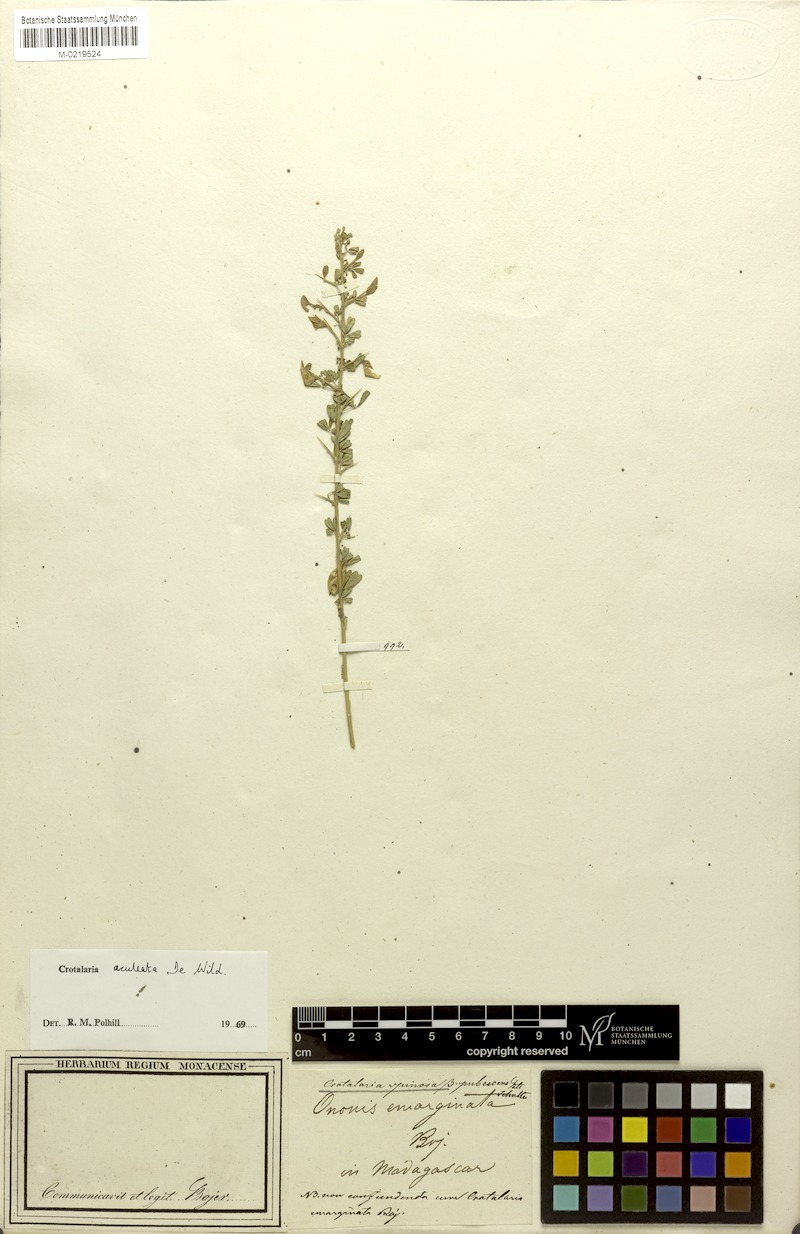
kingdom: Plantae
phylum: Tracheophyta
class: Magnoliopsida
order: Fabales
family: Fabaceae
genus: Crotalaria
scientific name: Crotalaria aculeata
